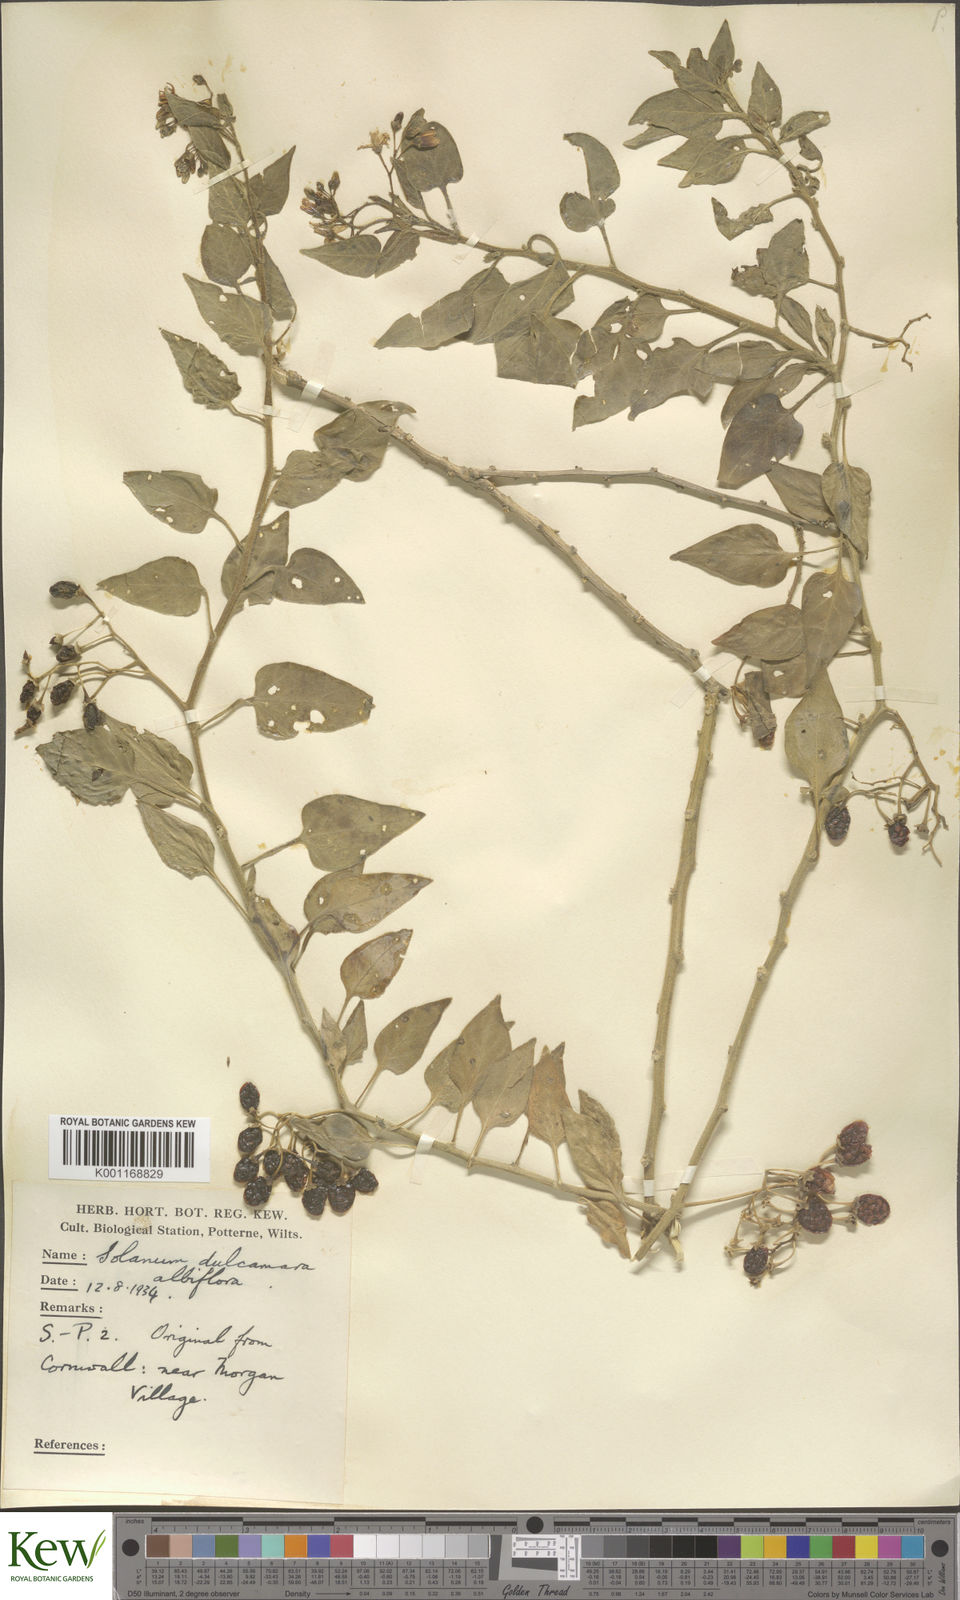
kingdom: Plantae
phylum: Tracheophyta
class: Magnoliopsida
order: Solanales
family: Solanaceae
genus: Solanum
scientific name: Solanum dulcamara
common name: Climbing nightshade
